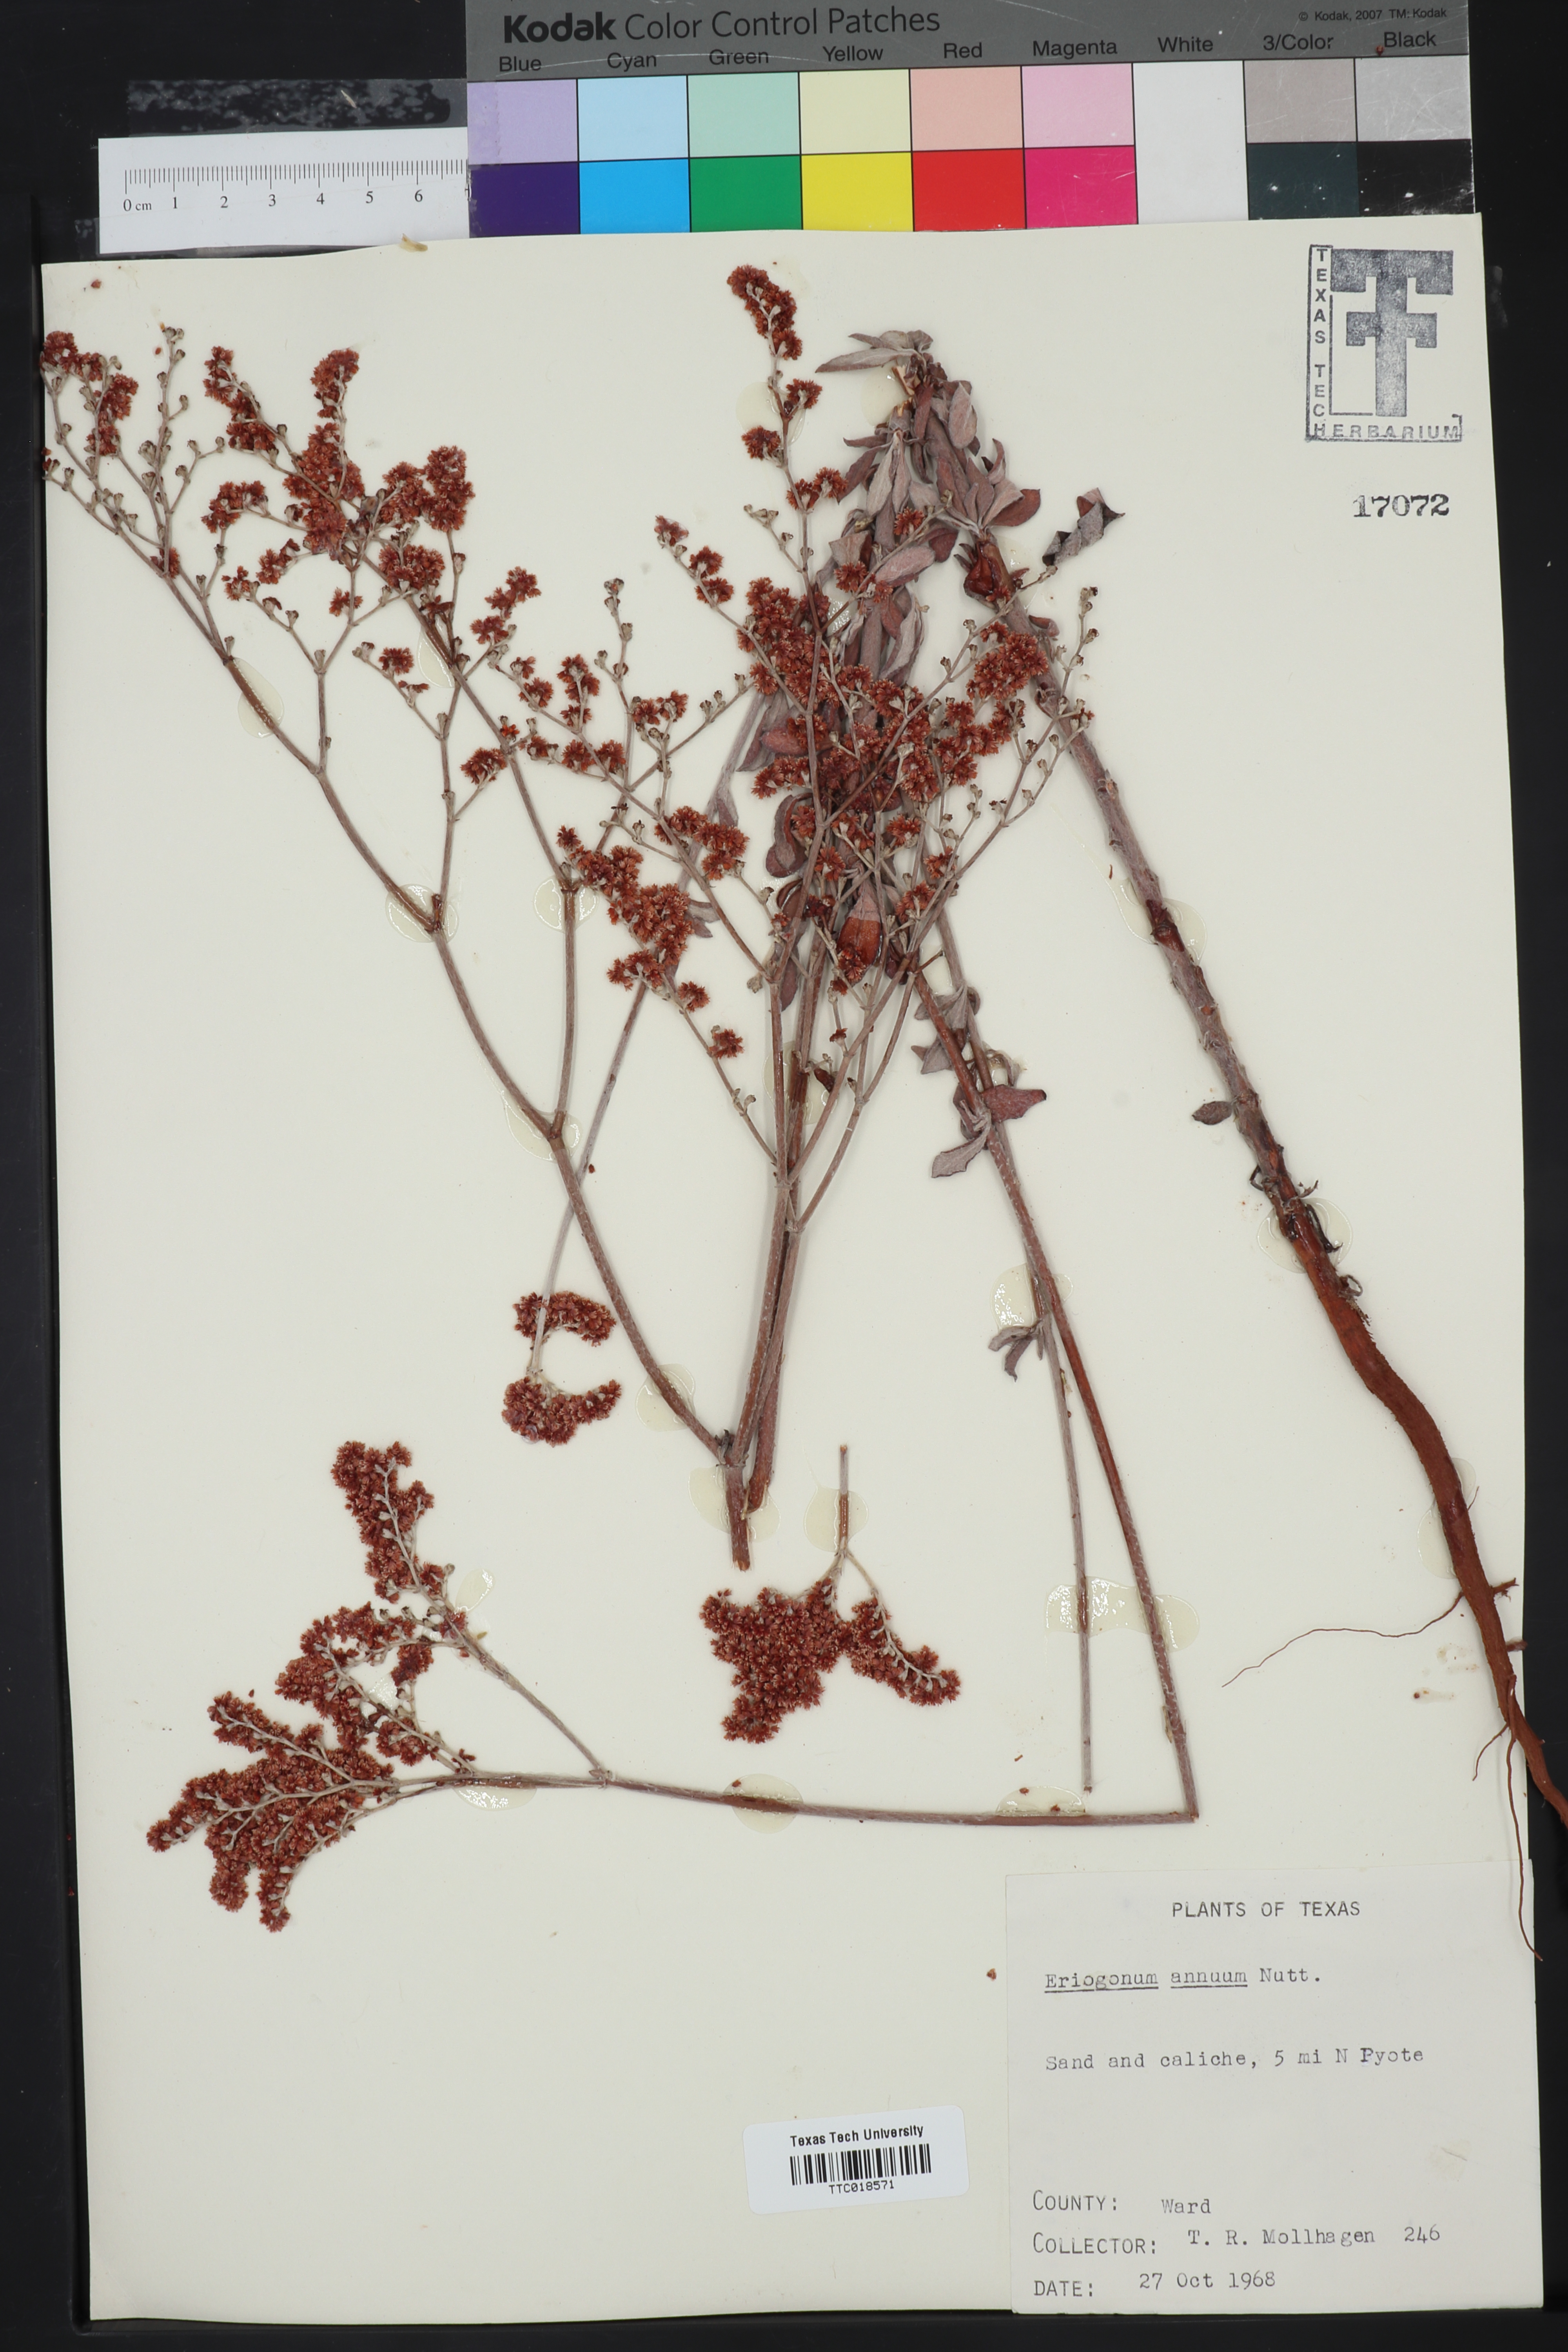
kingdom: Plantae
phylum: Tracheophyta
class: Magnoliopsida
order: Caryophyllales
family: Polygonaceae
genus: Eriogonum
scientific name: Eriogonum annuum
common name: Annual wild buckwheat
